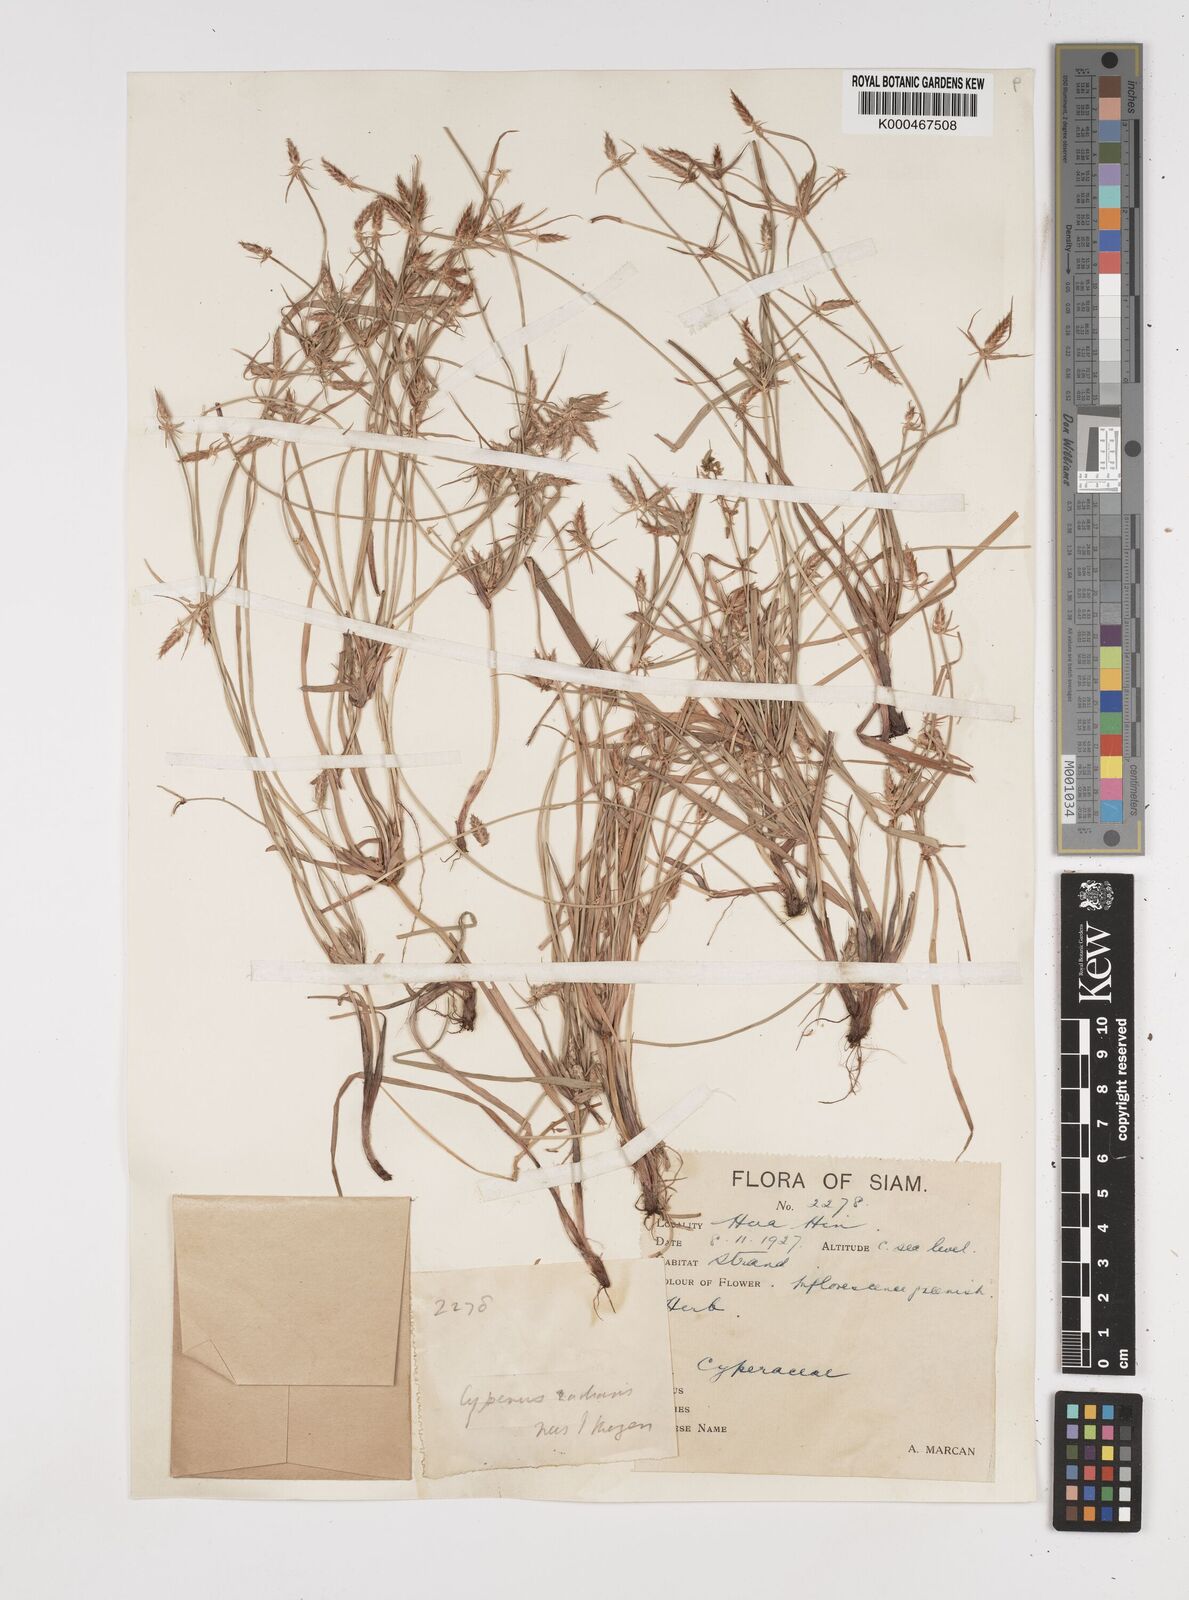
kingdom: Plantae
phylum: Tracheophyta
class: Liliopsida
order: Poales
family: Cyperaceae
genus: Cyperus
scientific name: Cyperus radians
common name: Short-stem cyperus
